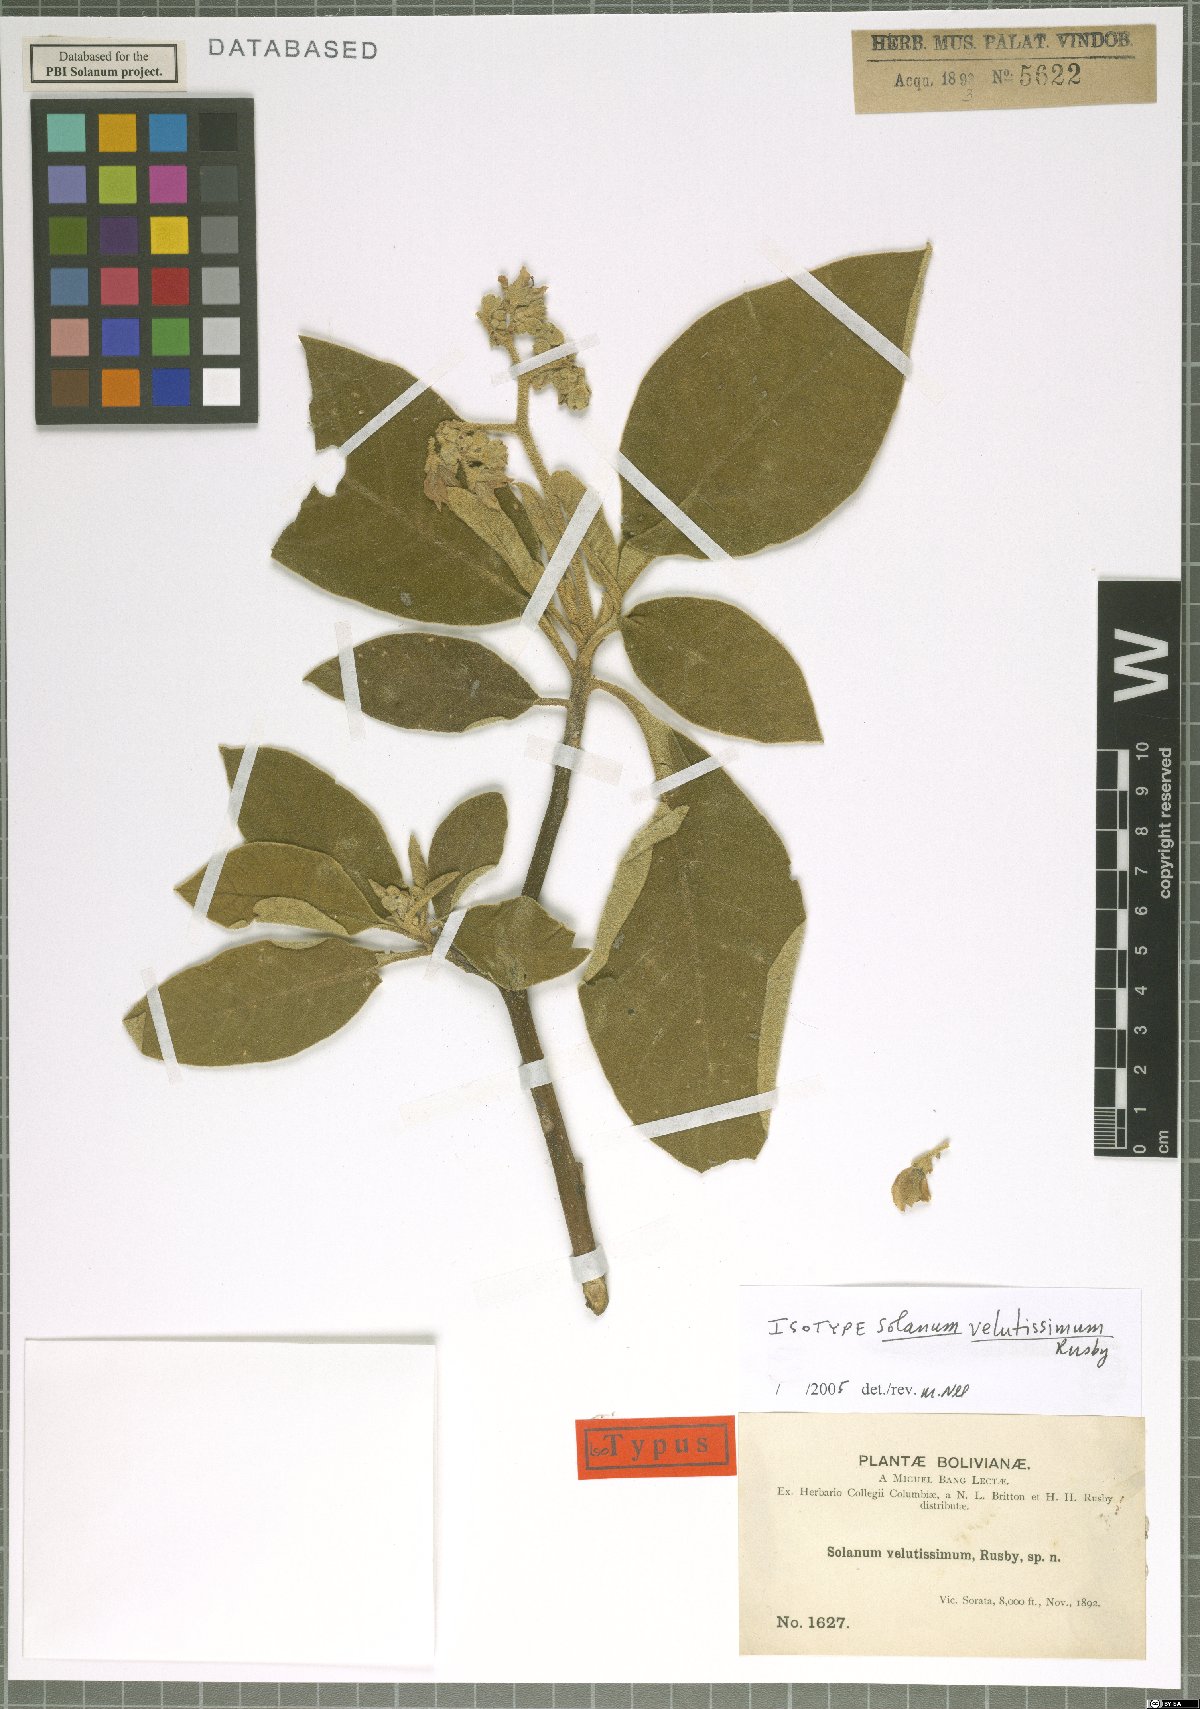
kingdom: Plantae
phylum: Tracheophyta
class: Magnoliopsida
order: Solanales
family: Solanaceae
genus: Solanum
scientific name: Solanum velutissimum
